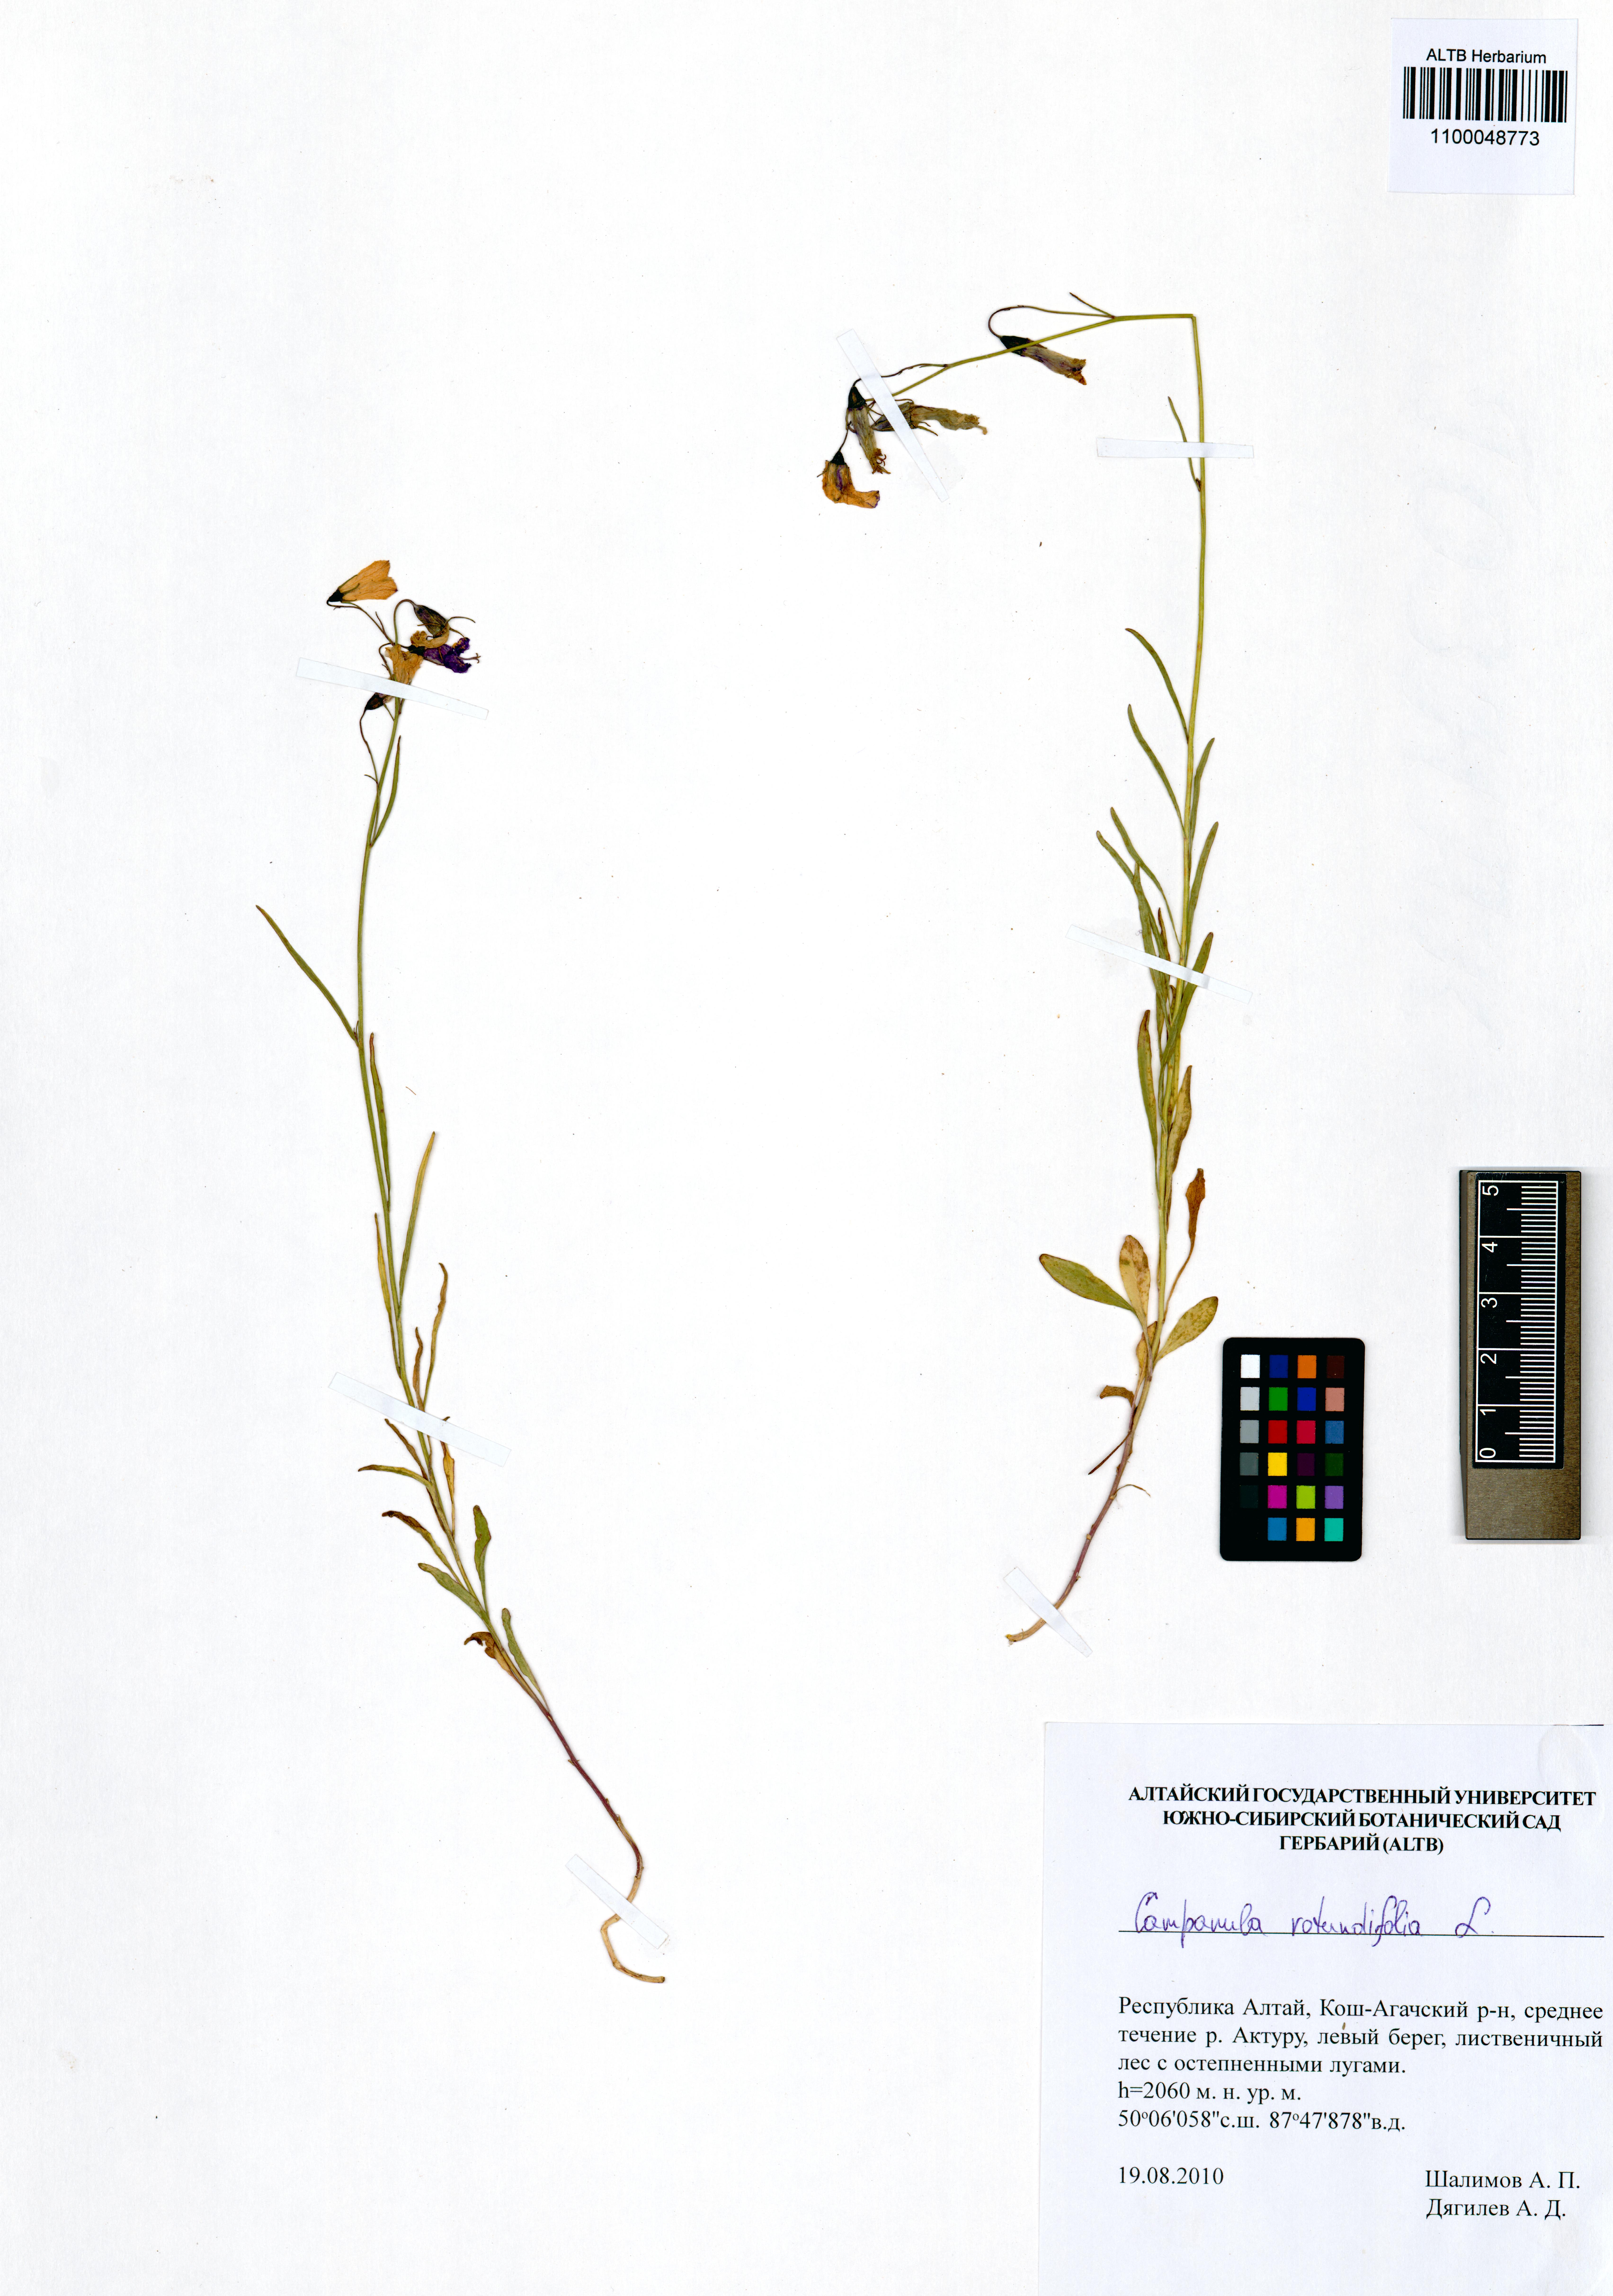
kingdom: Plantae
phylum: Tracheophyta
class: Magnoliopsida
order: Asterales
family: Campanulaceae
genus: Campanula
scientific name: Campanula rotundifolia
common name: Harebell
